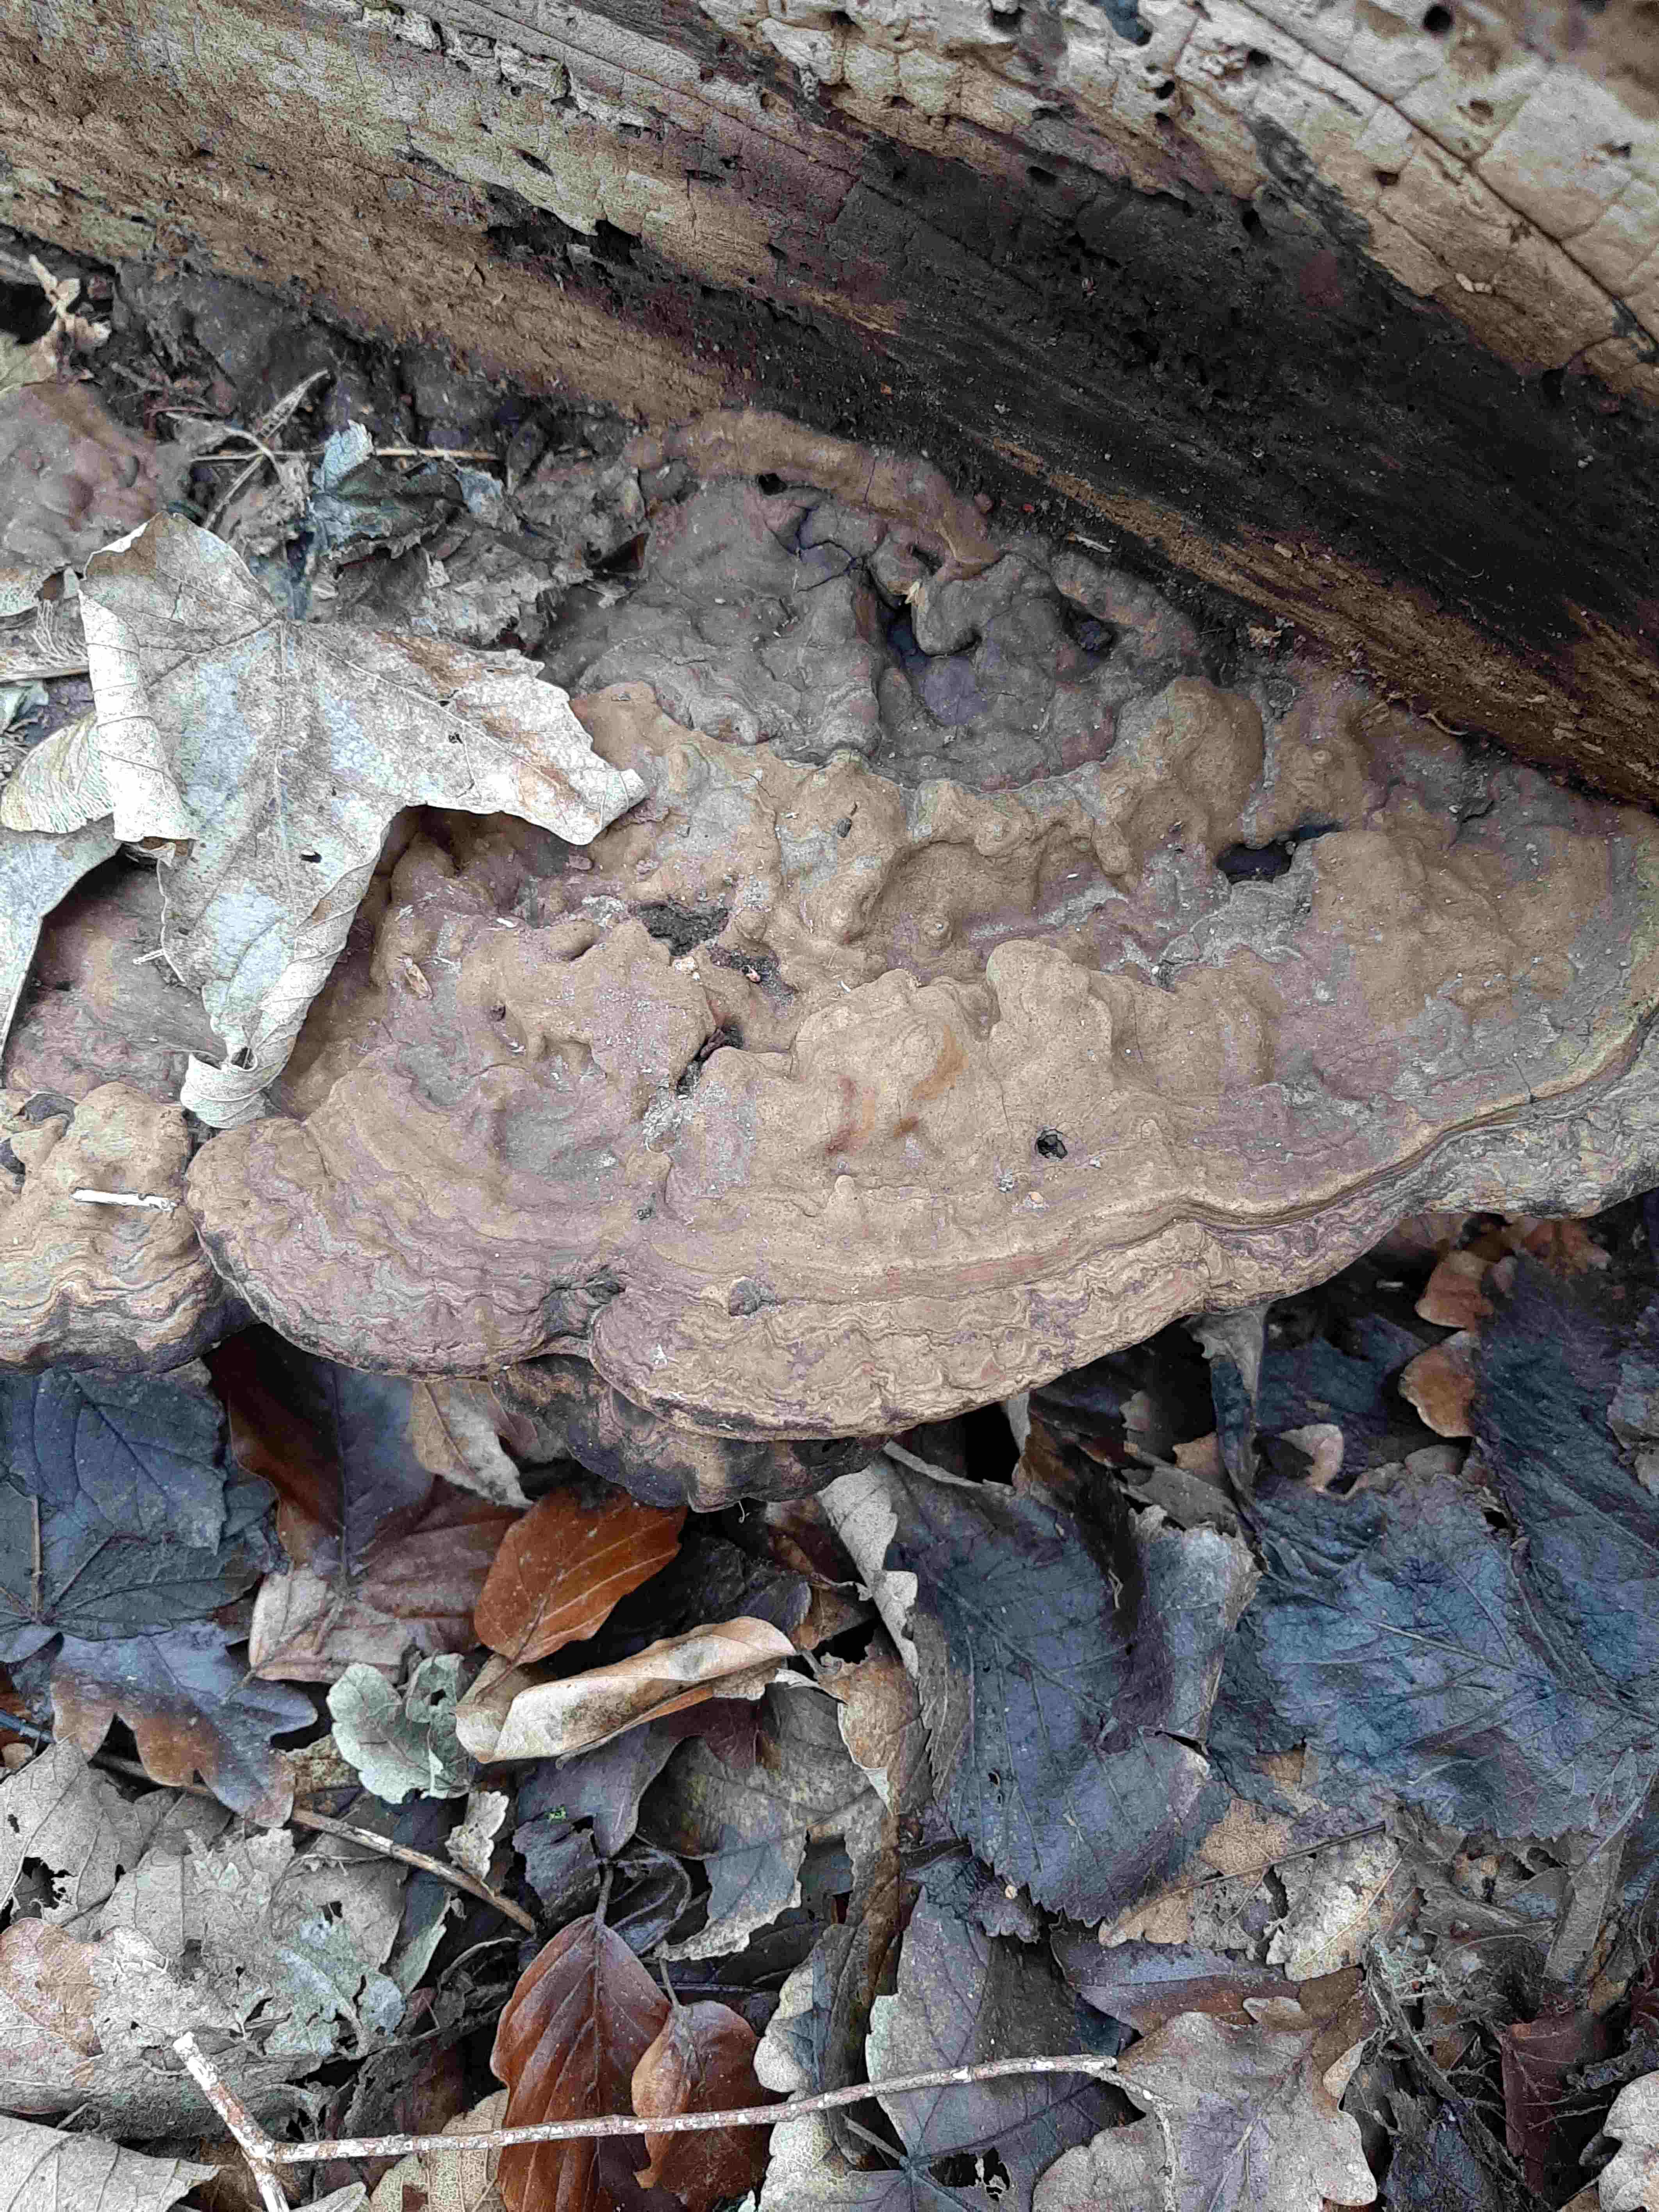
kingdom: Fungi
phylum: Basidiomycota
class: Agaricomycetes
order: Polyporales
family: Polyporaceae
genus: Ganoderma
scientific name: Ganoderma applanatum
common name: flad lakporesvamp
